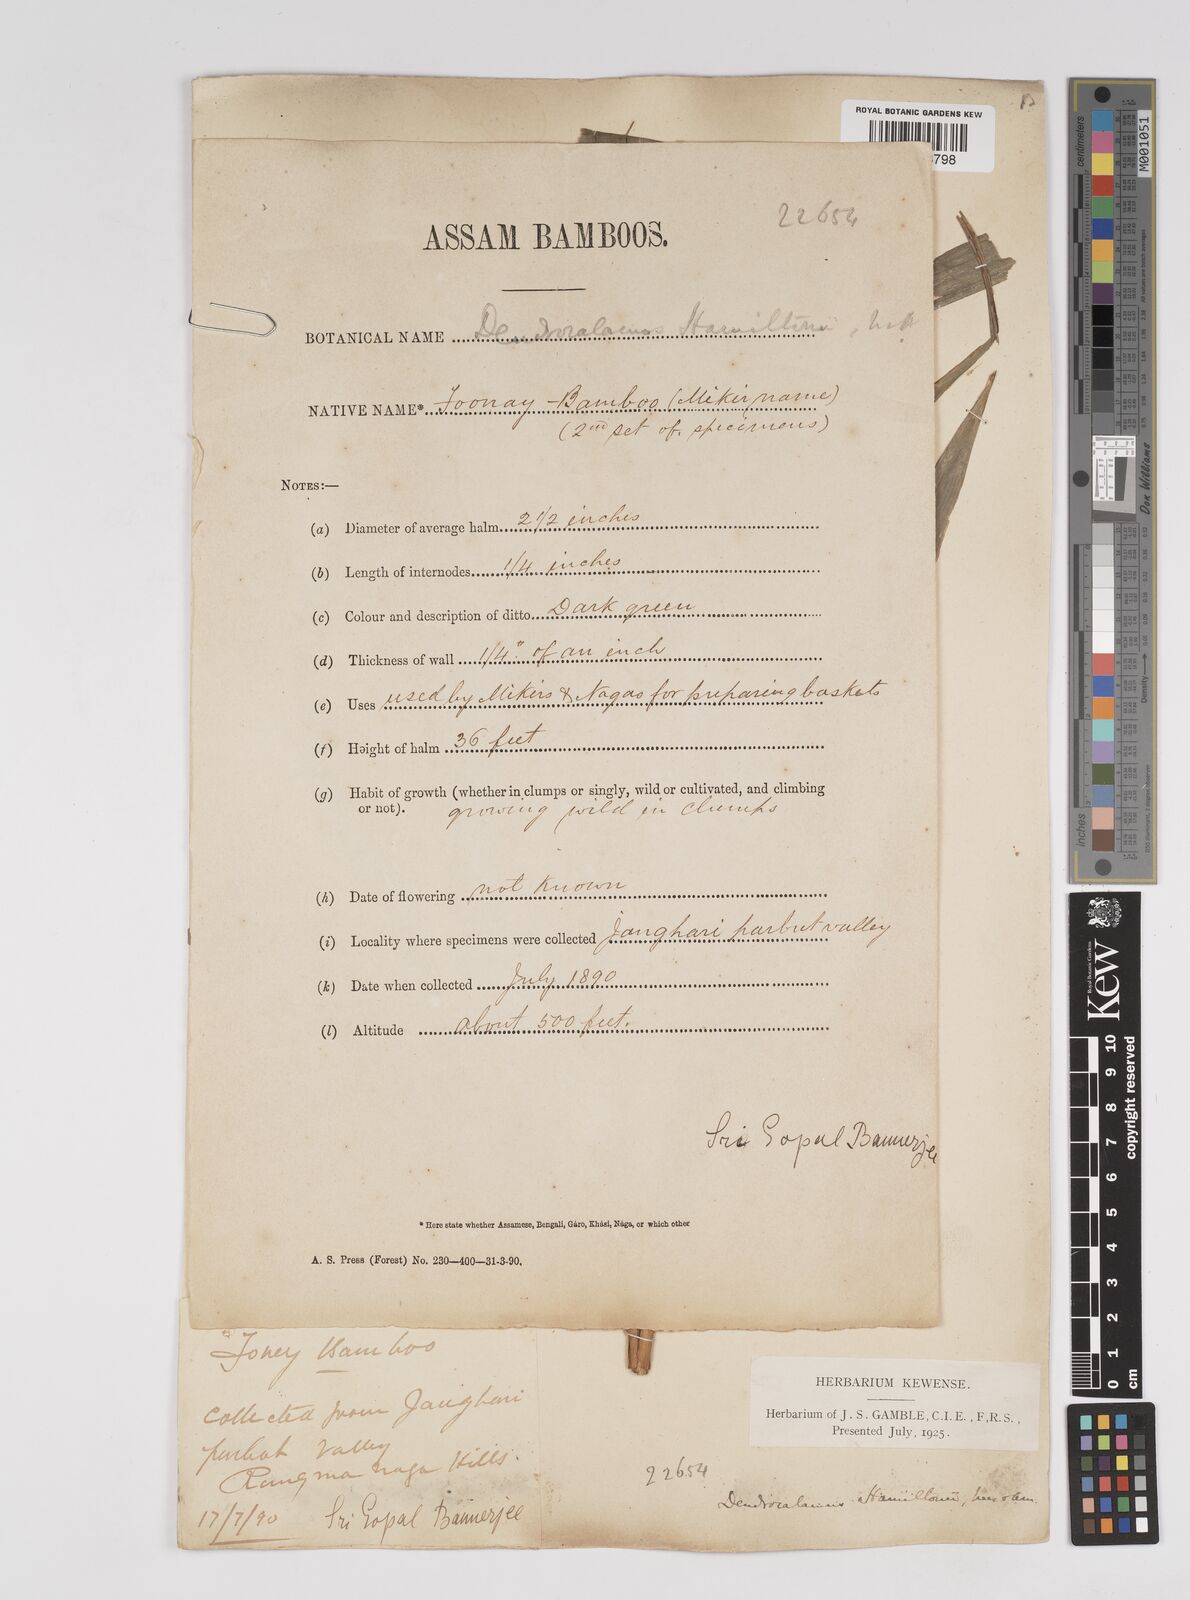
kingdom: Plantae
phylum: Tracheophyta
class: Liliopsida
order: Poales
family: Poaceae
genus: Dendrocalamus
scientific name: Dendrocalamus hamiltonii
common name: Tama bamboo
